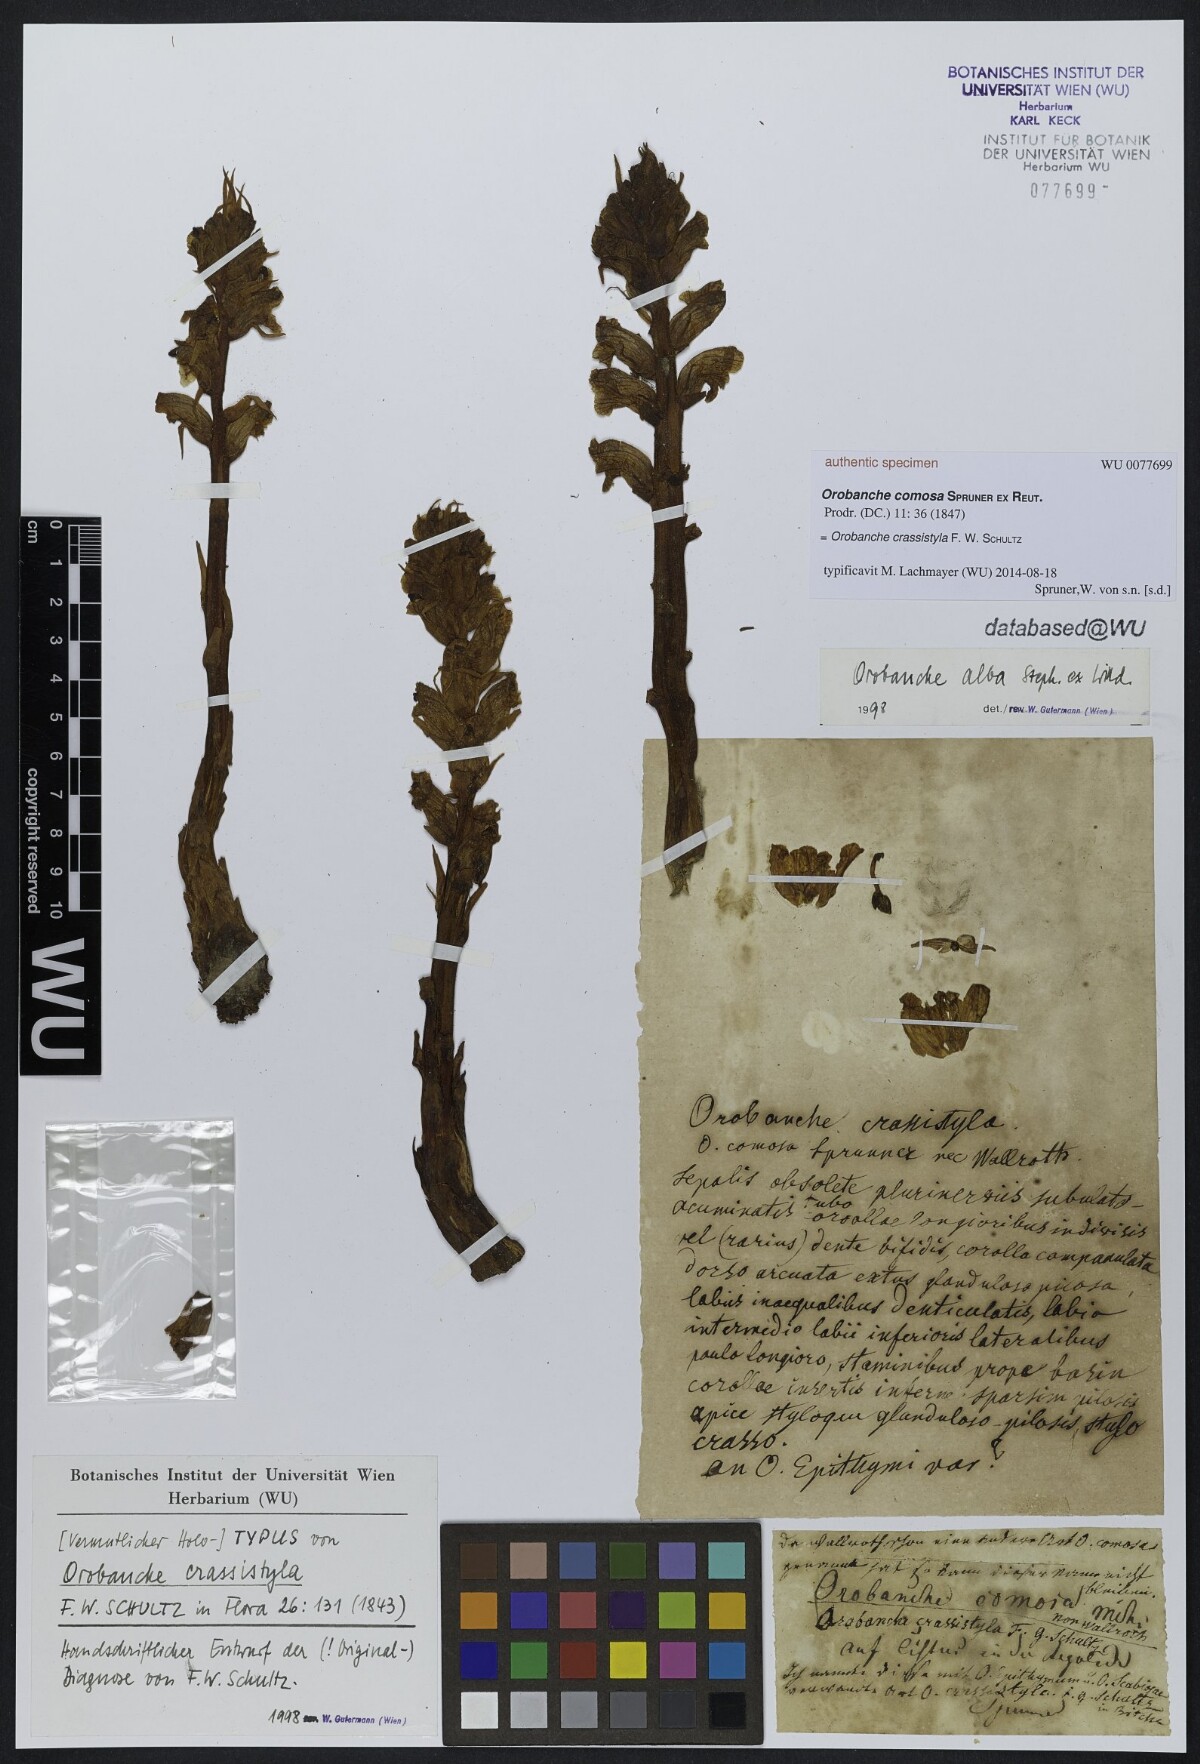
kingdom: Plantae
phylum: Tracheophyta
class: Magnoliopsida
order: Lamiales
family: Orobanchaceae
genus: Orobanche
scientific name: Orobanche alba
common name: Thyme broomrape
